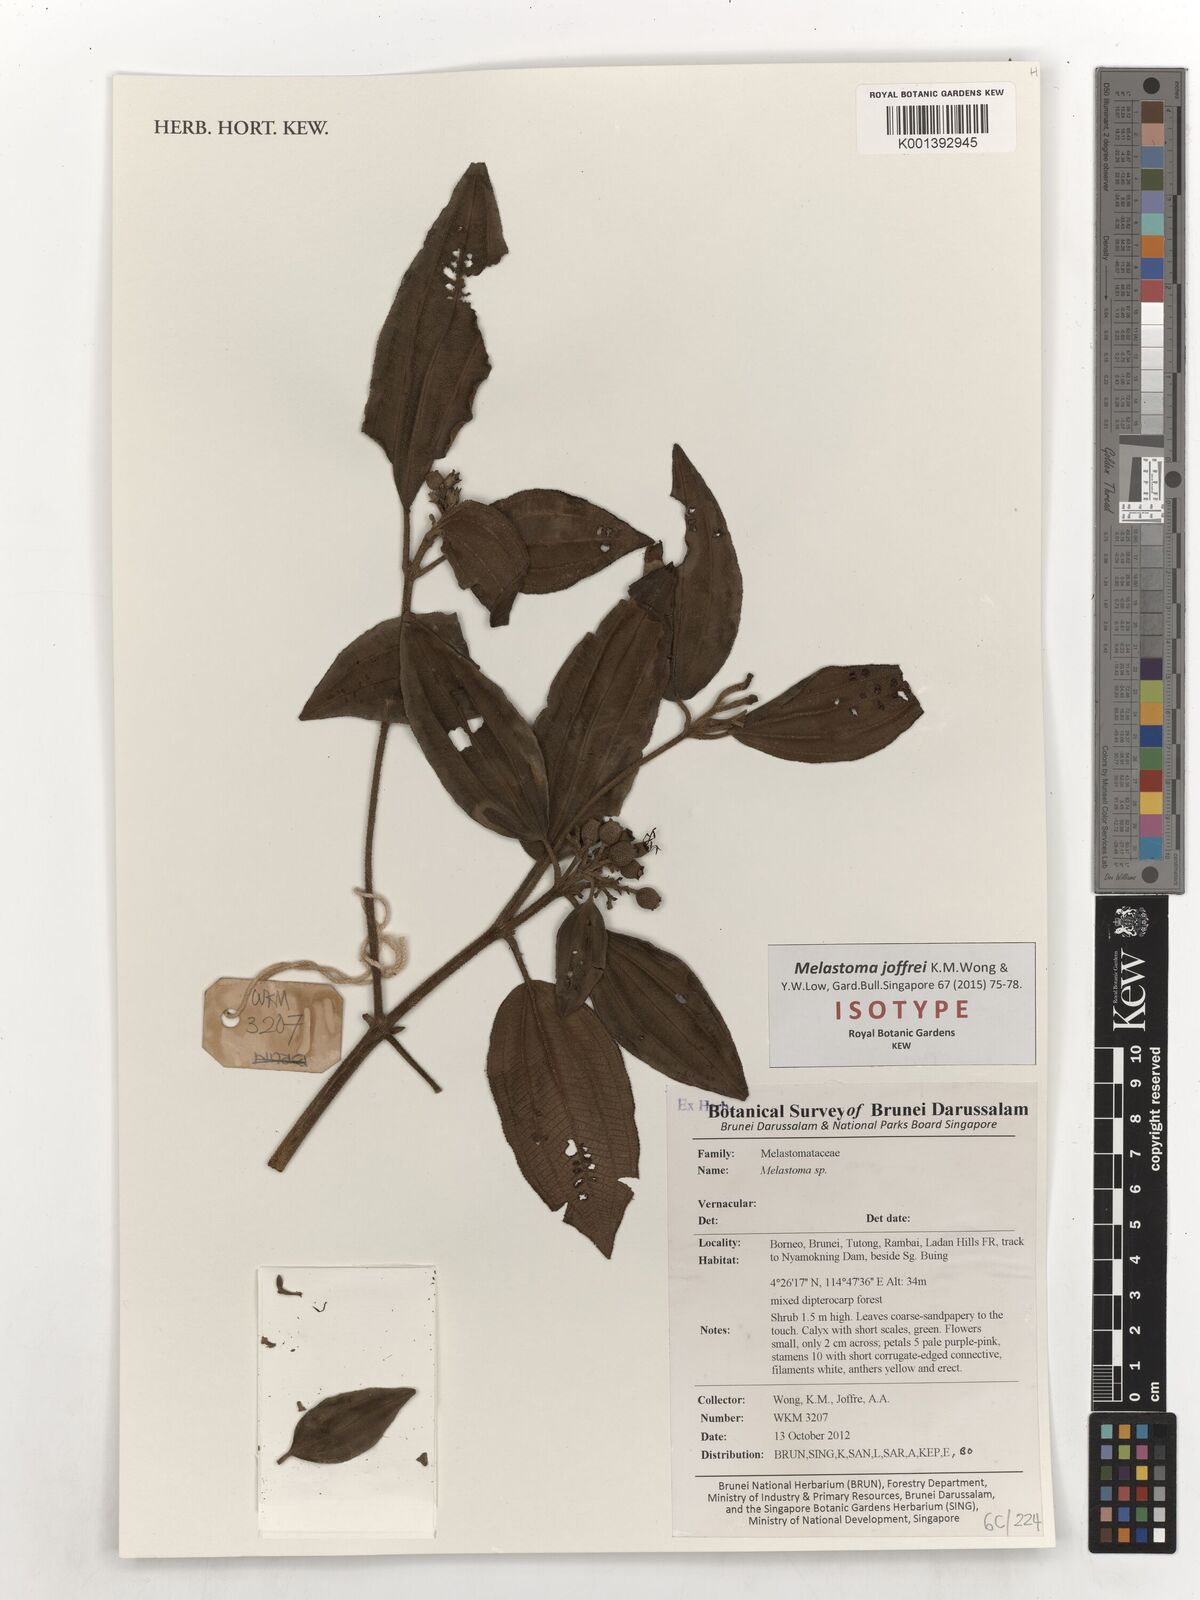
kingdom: Plantae
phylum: Tracheophyta
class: Magnoliopsida
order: Myrtales
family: Melastomataceae
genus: Melastoma
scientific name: Melastoma joffrei
